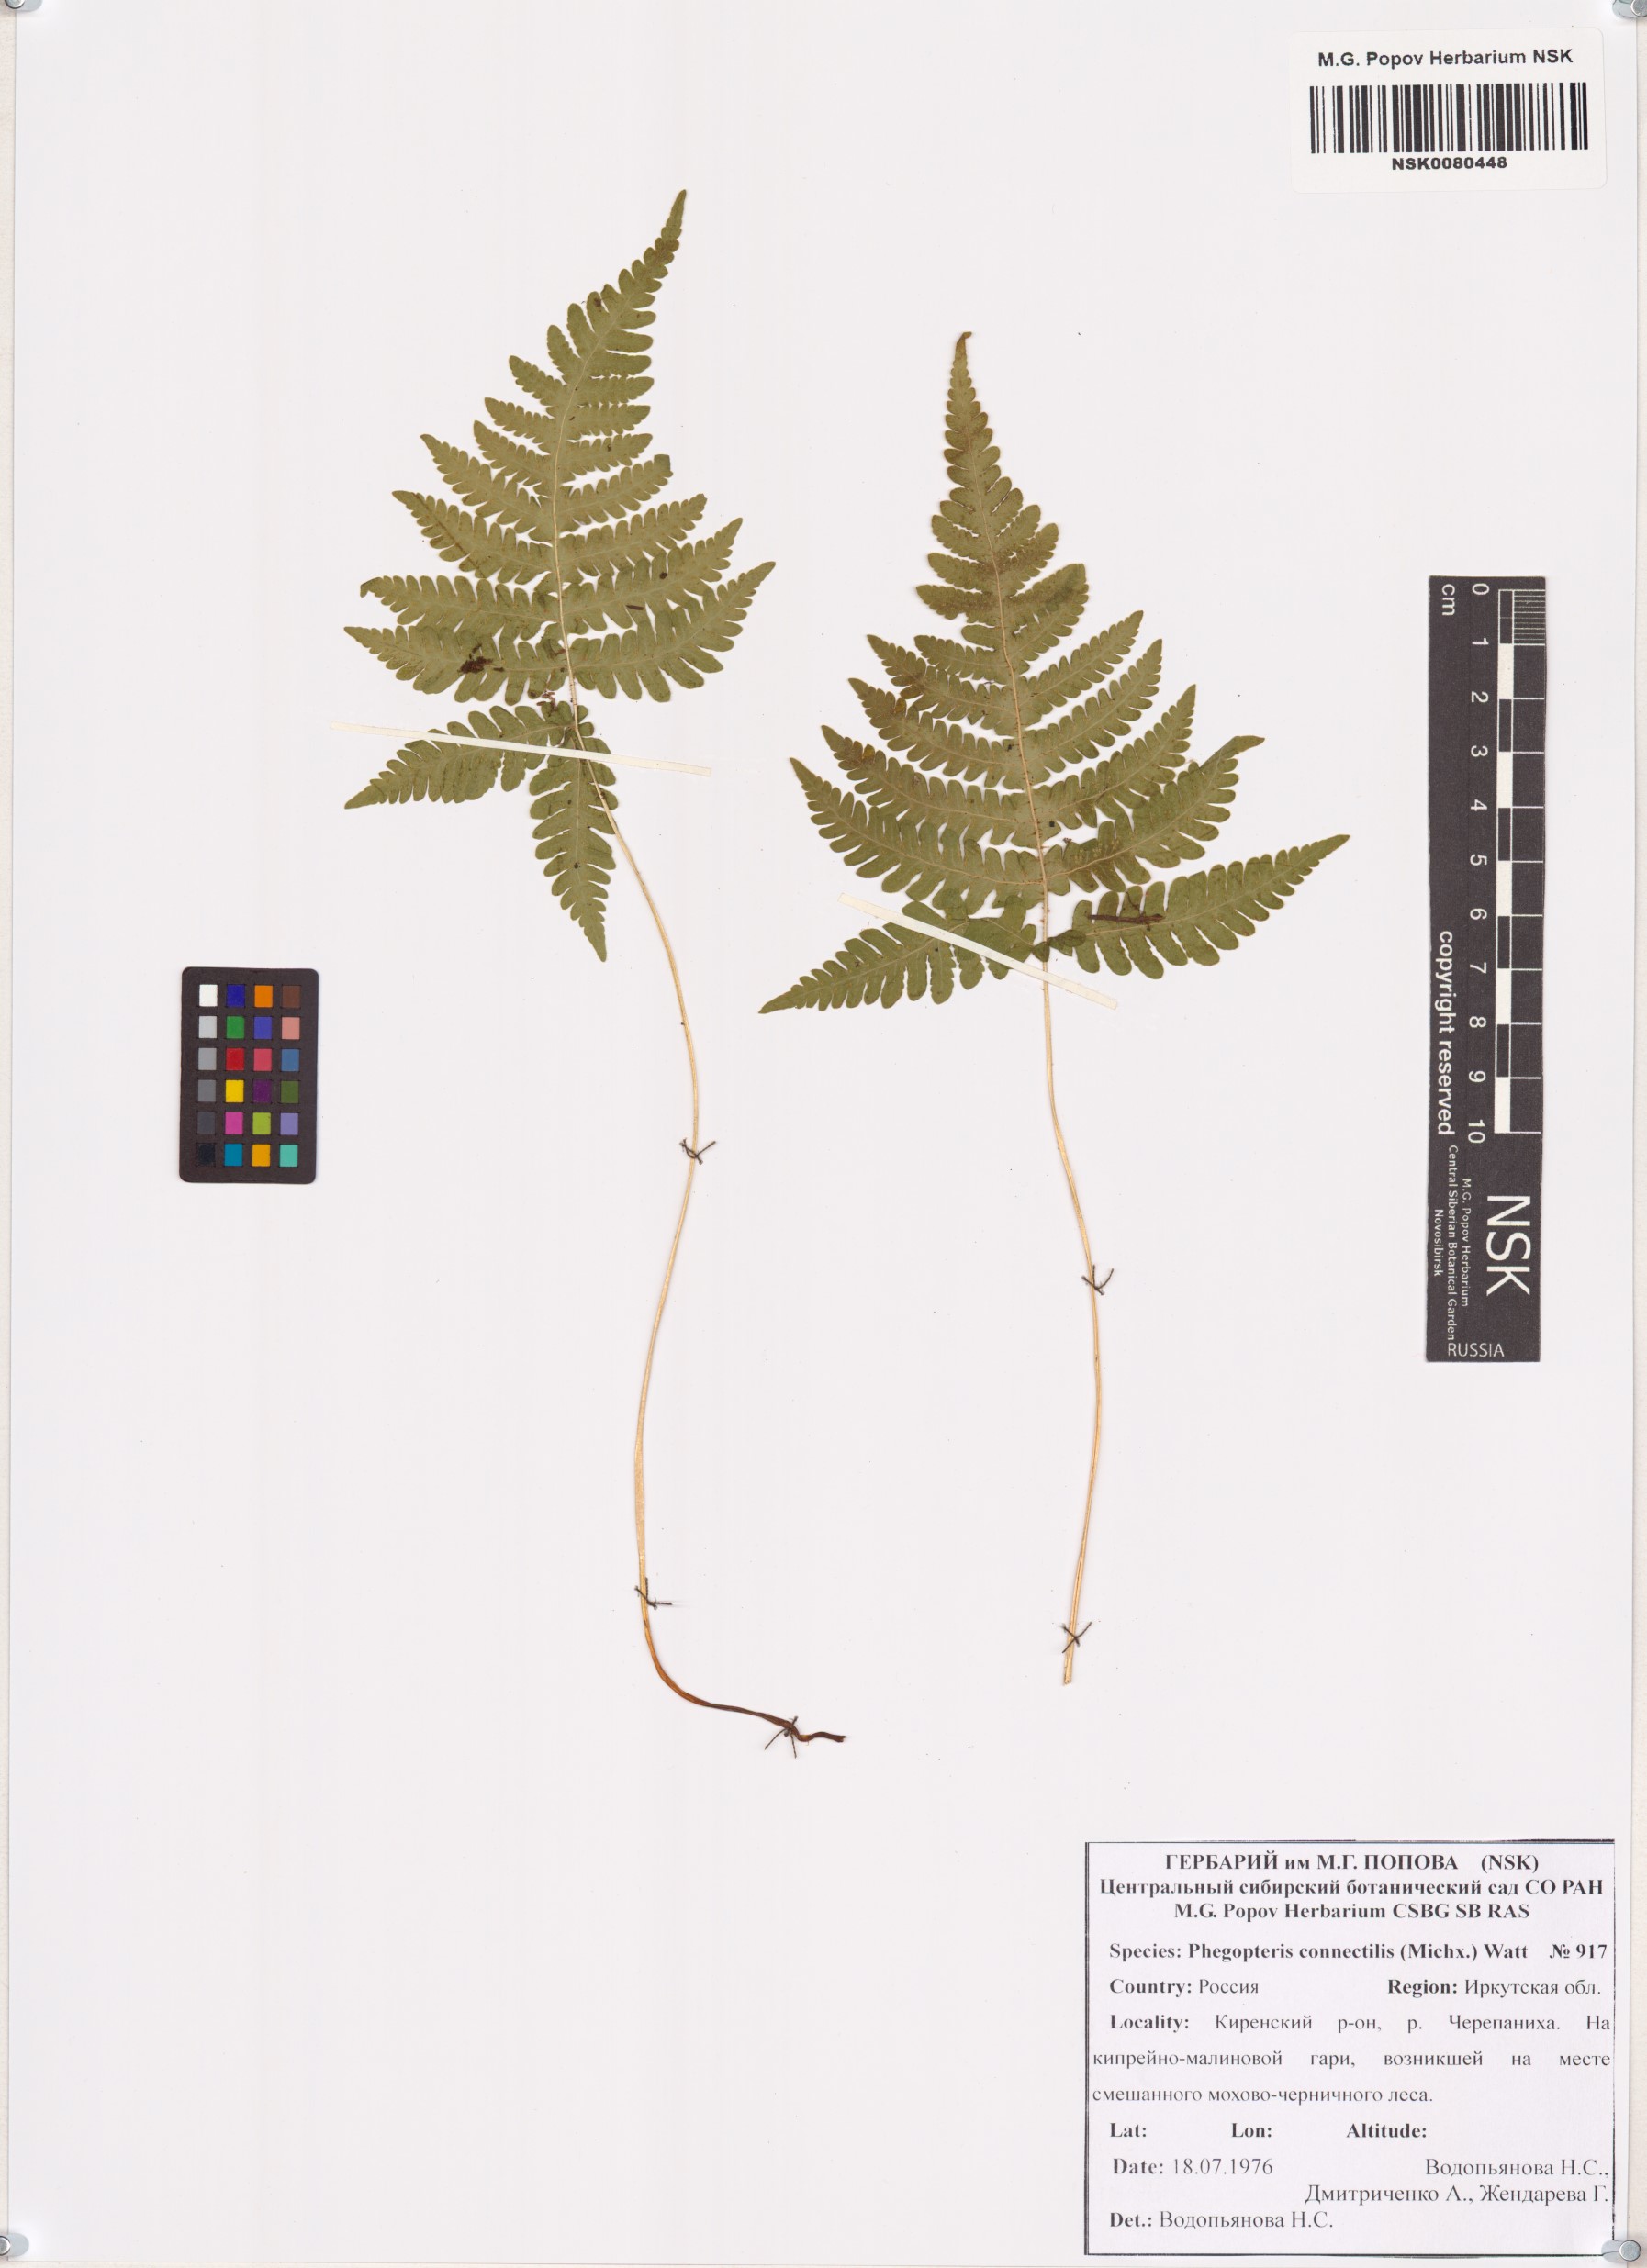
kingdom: Plantae
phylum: Tracheophyta
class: Polypodiopsida
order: Polypodiales
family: Thelypteridaceae
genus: Phegopteris
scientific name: Phegopteris connectilis
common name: Beech fern
